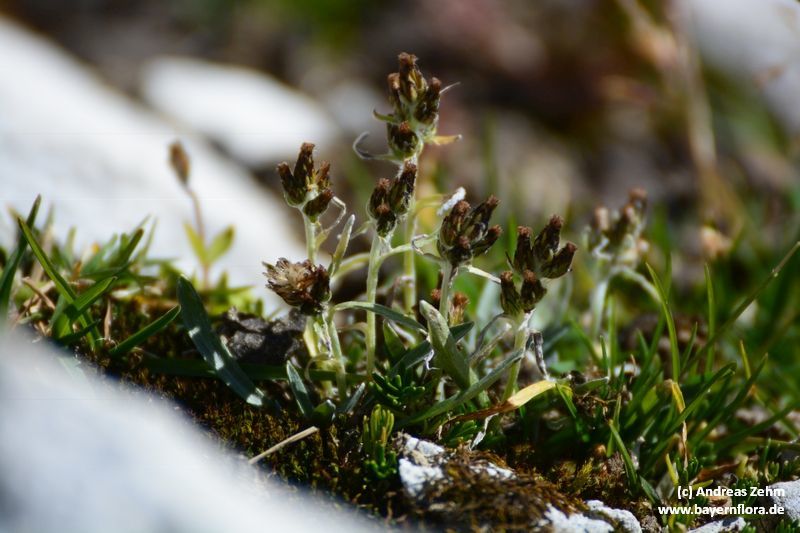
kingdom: Plantae
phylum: Tracheophyta
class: Magnoliopsida
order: Asterales
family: Asteraceae
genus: Omalotheca
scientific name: Omalotheca supina
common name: Alpine arctic-cudweed
